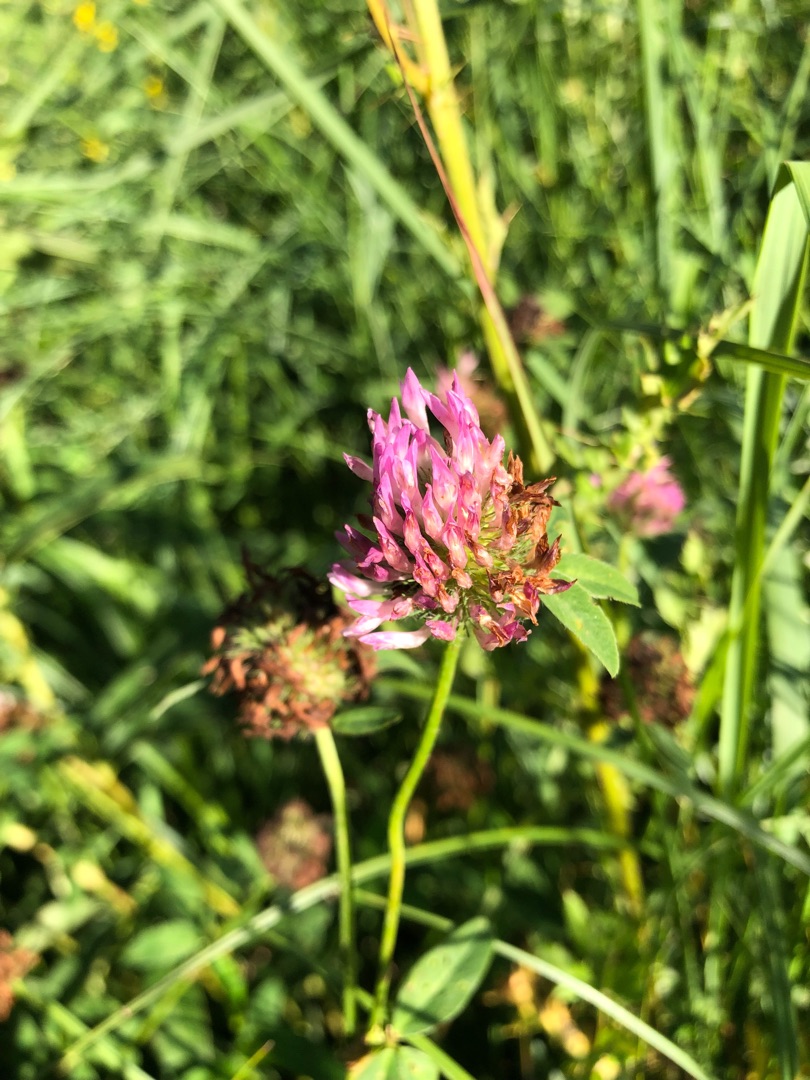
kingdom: Plantae
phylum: Tracheophyta
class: Magnoliopsida
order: Fabales
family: Fabaceae
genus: Trifolium
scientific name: Trifolium medium
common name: Bugtet kløver
